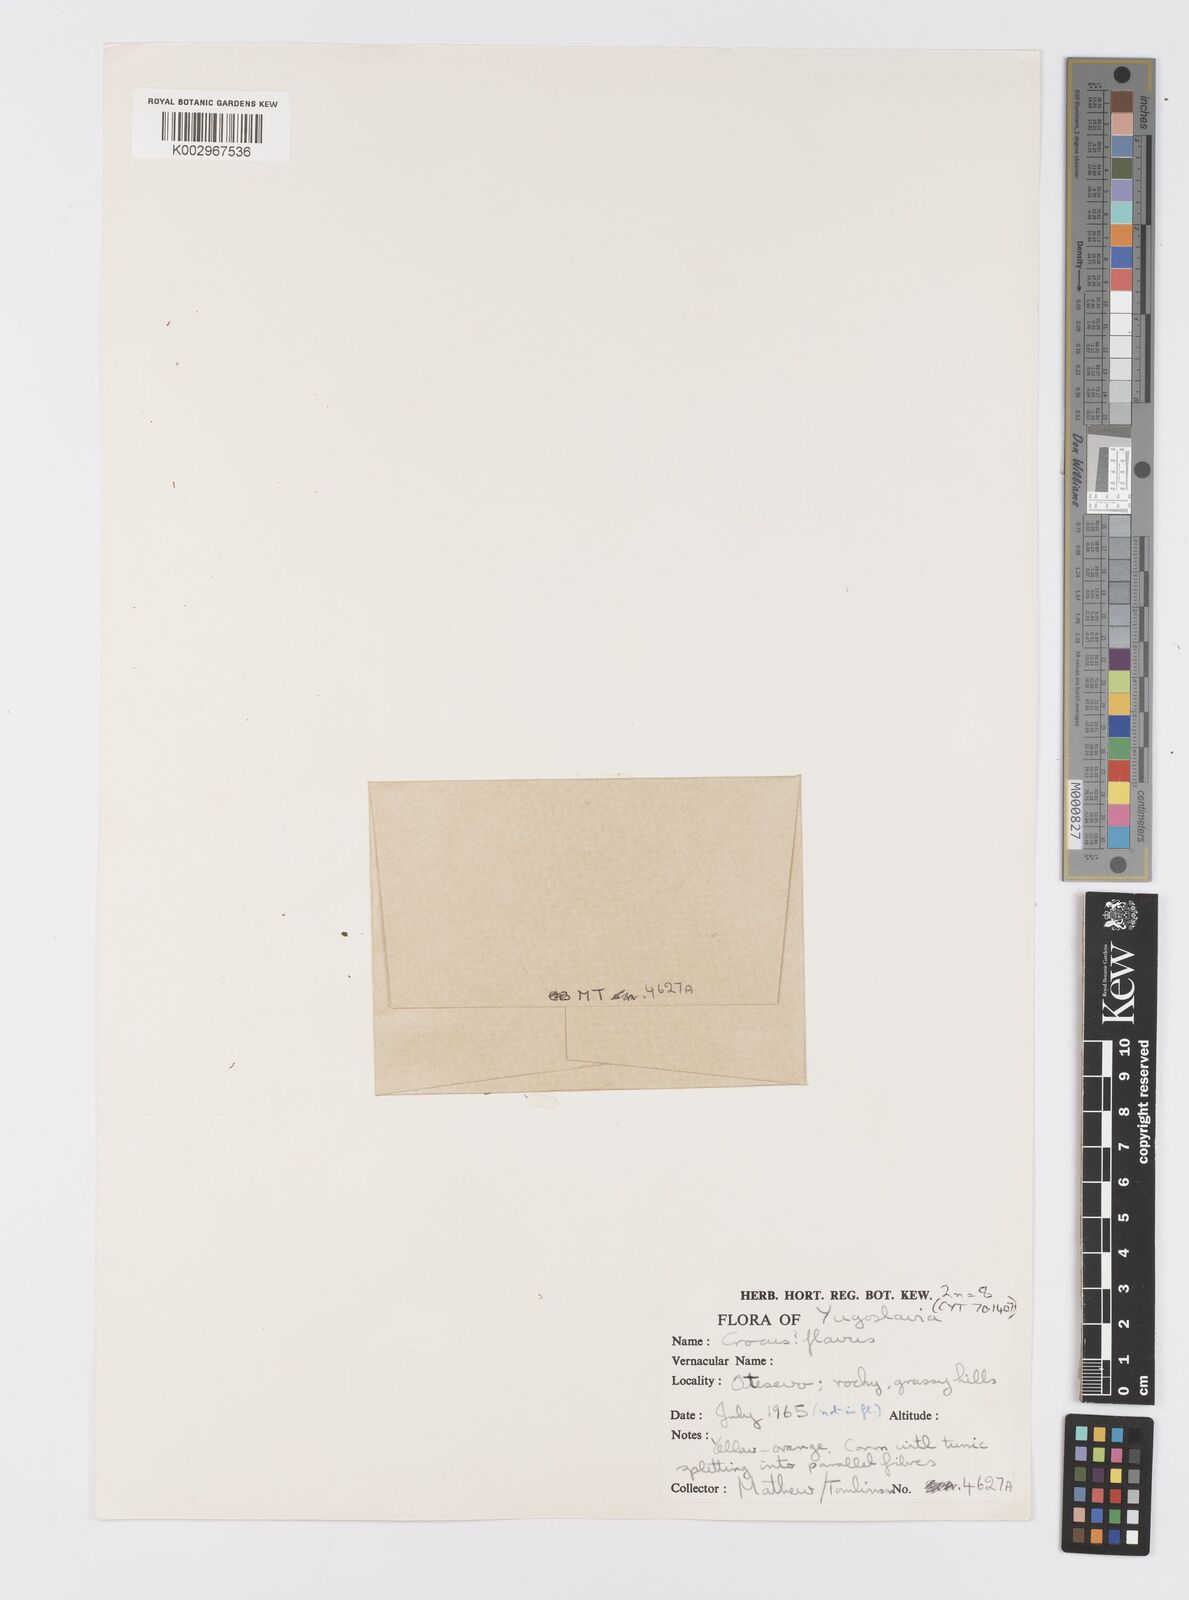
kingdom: Plantae
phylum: Tracheophyta
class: Liliopsida
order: Asparagales
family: Iridaceae
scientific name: Iridaceae
